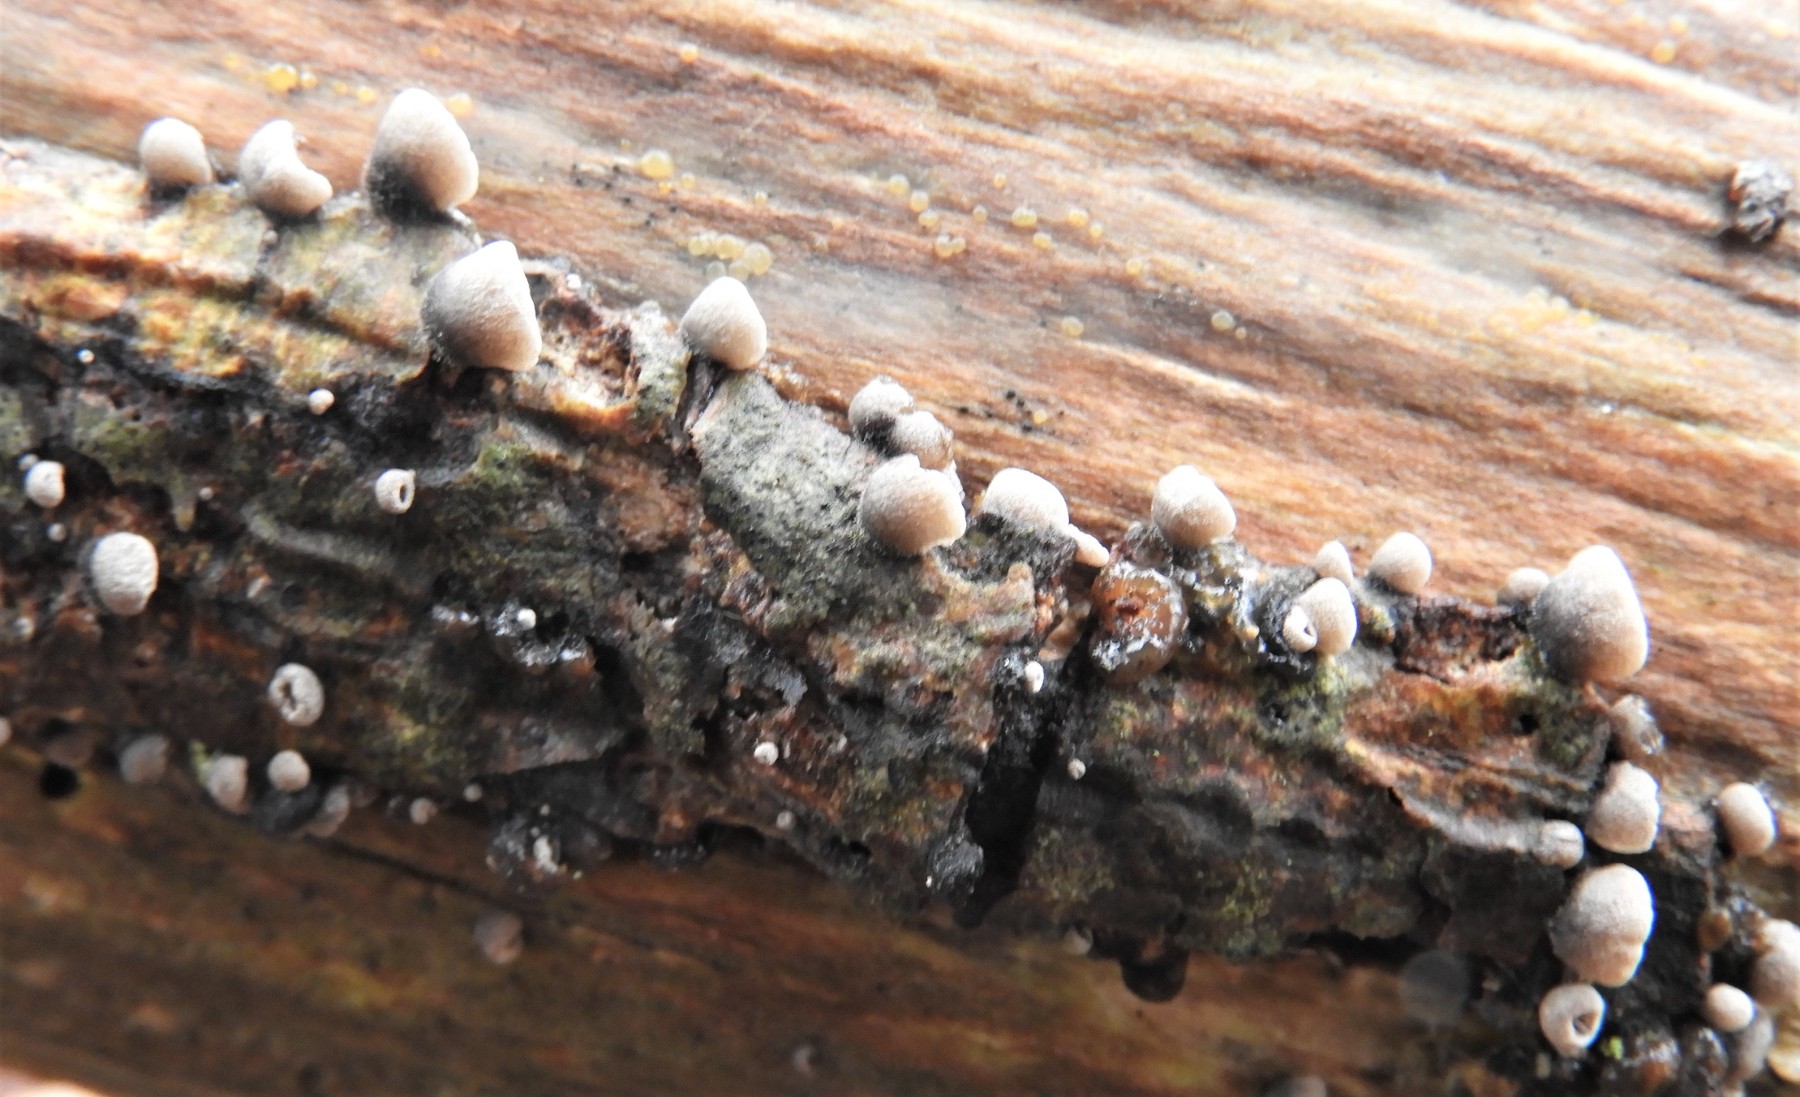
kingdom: Fungi
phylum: Basidiomycota
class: Agaricomycetes
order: Agaricales
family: Pleurotaceae
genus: Resupinatus
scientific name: Resupinatus trichotis
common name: mørkfiltet barkhat
